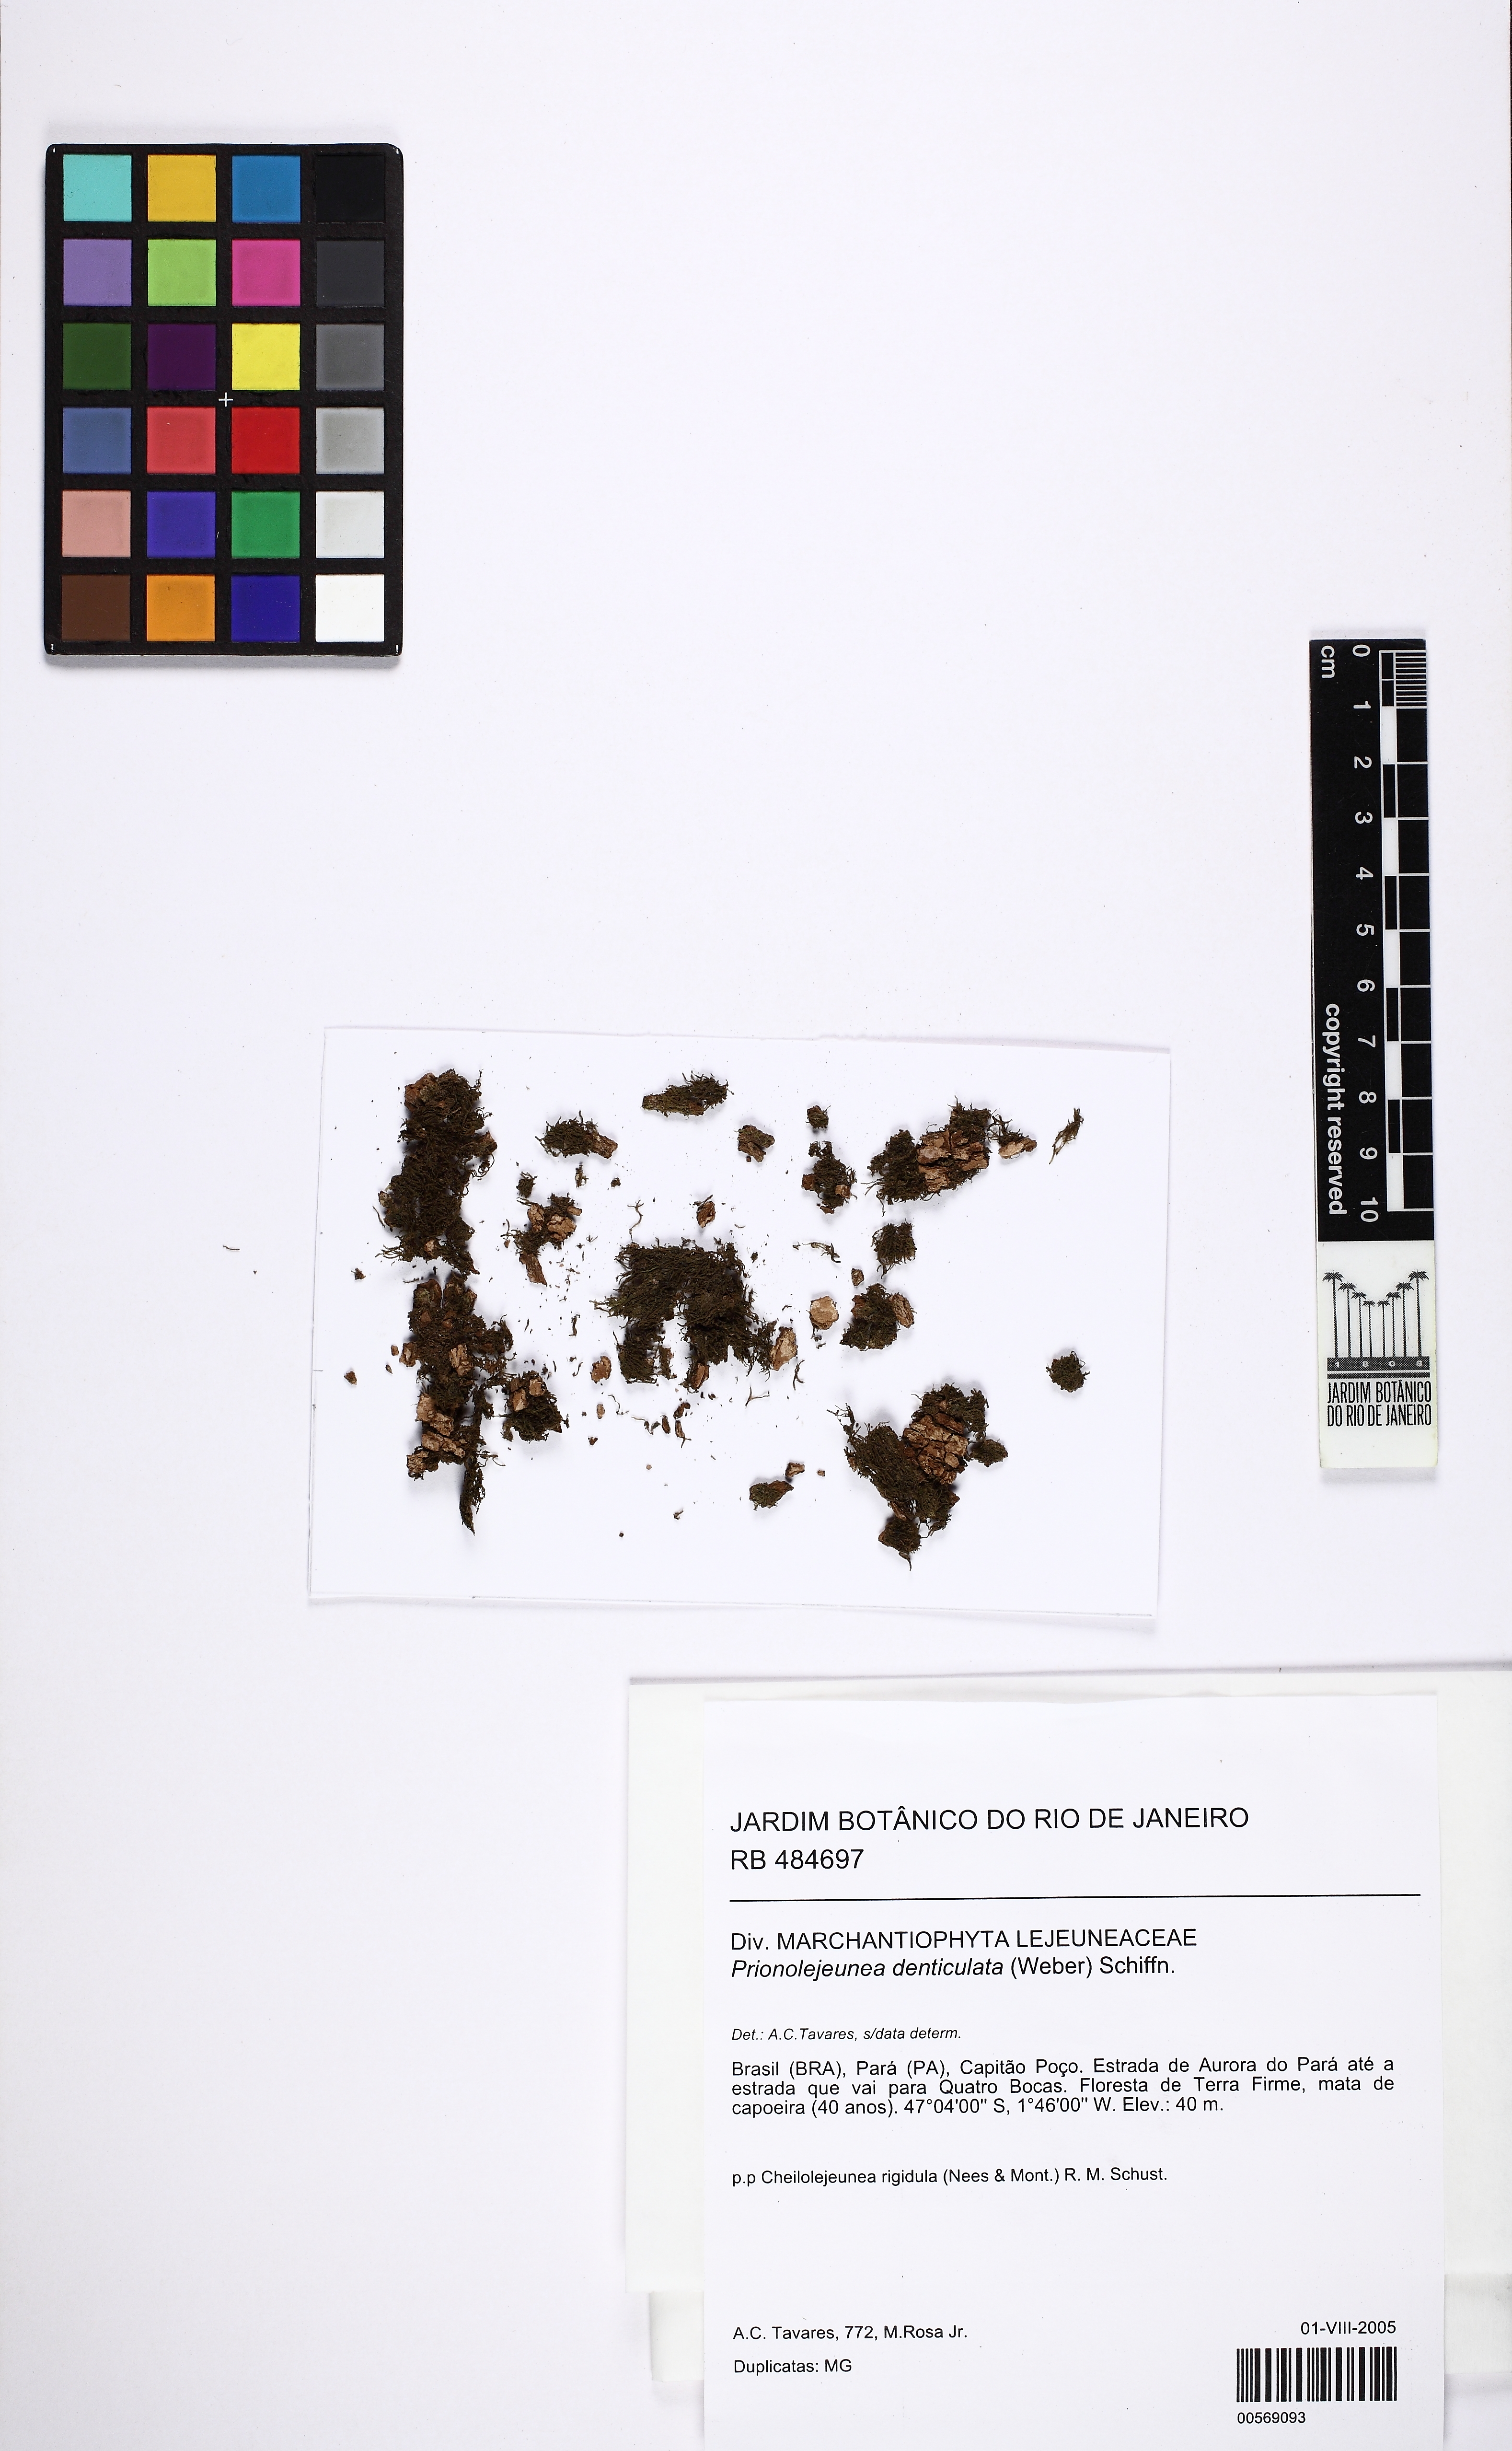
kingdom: Plantae
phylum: Marchantiophyta
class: Jungermanniopsida
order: Porellales
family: Lejeuneaceae
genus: Prionolejeunea
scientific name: Prionolejeunea denticulata
